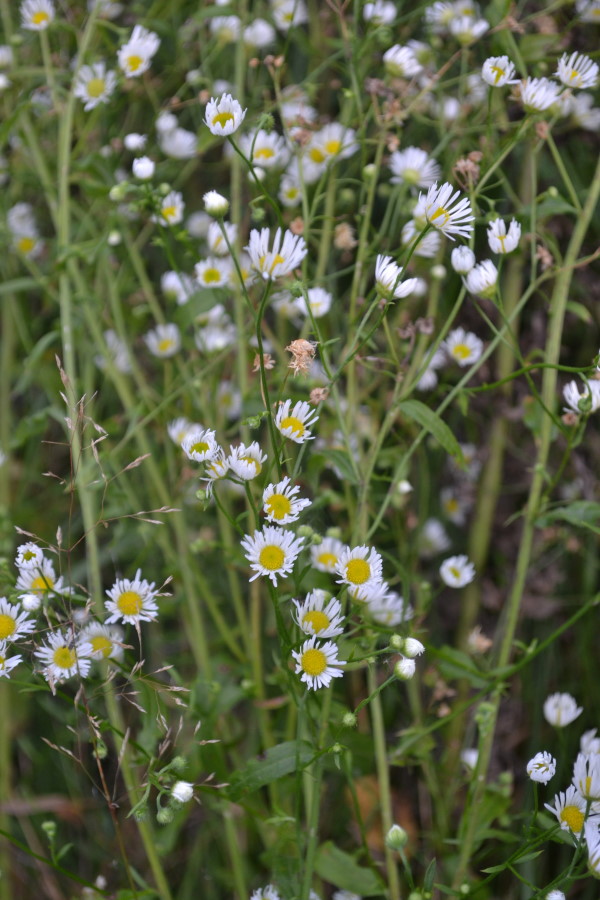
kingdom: Plantae
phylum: Tracheophyta
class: Magnoliopsida
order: Asterales
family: Asteraceae
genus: Erigeron
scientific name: Erigeron annuus
